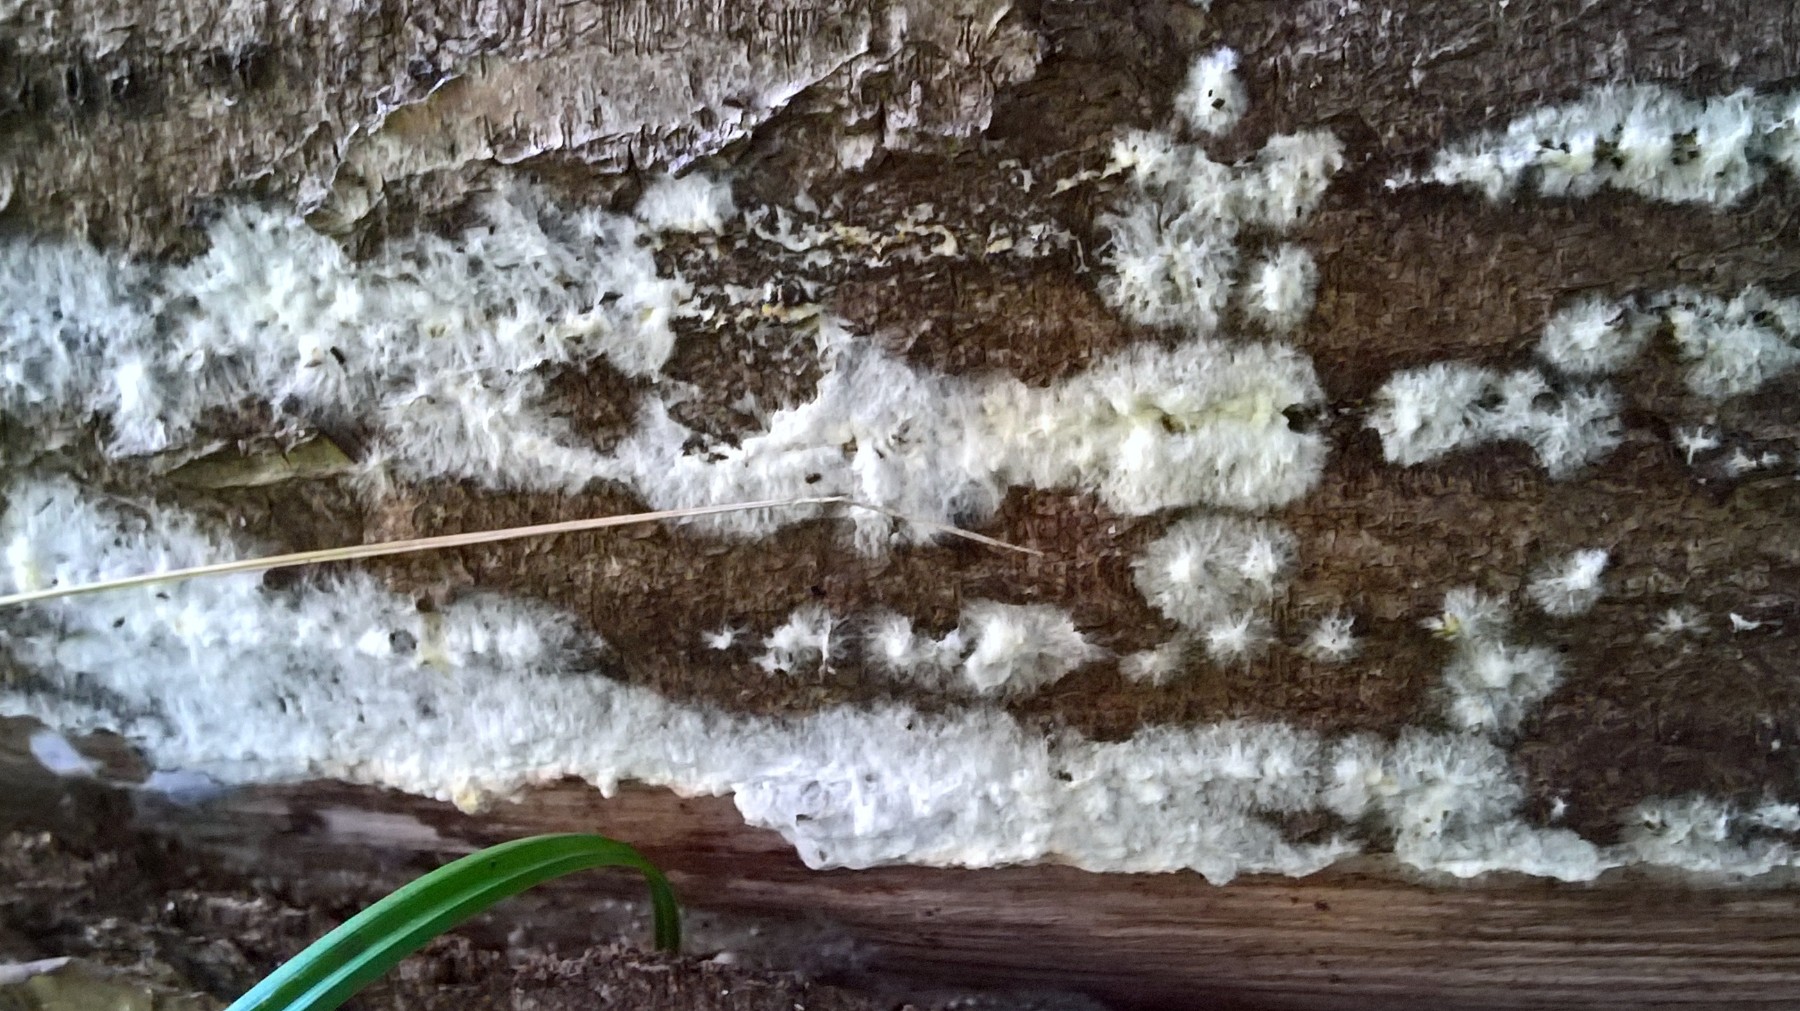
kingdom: Fungi
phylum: Basidiomycota
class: Agaricomycetes
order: Boletales
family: Coniophoraceae
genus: Coniophora
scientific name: Coniophora puteana
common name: gul tømmersvamp
